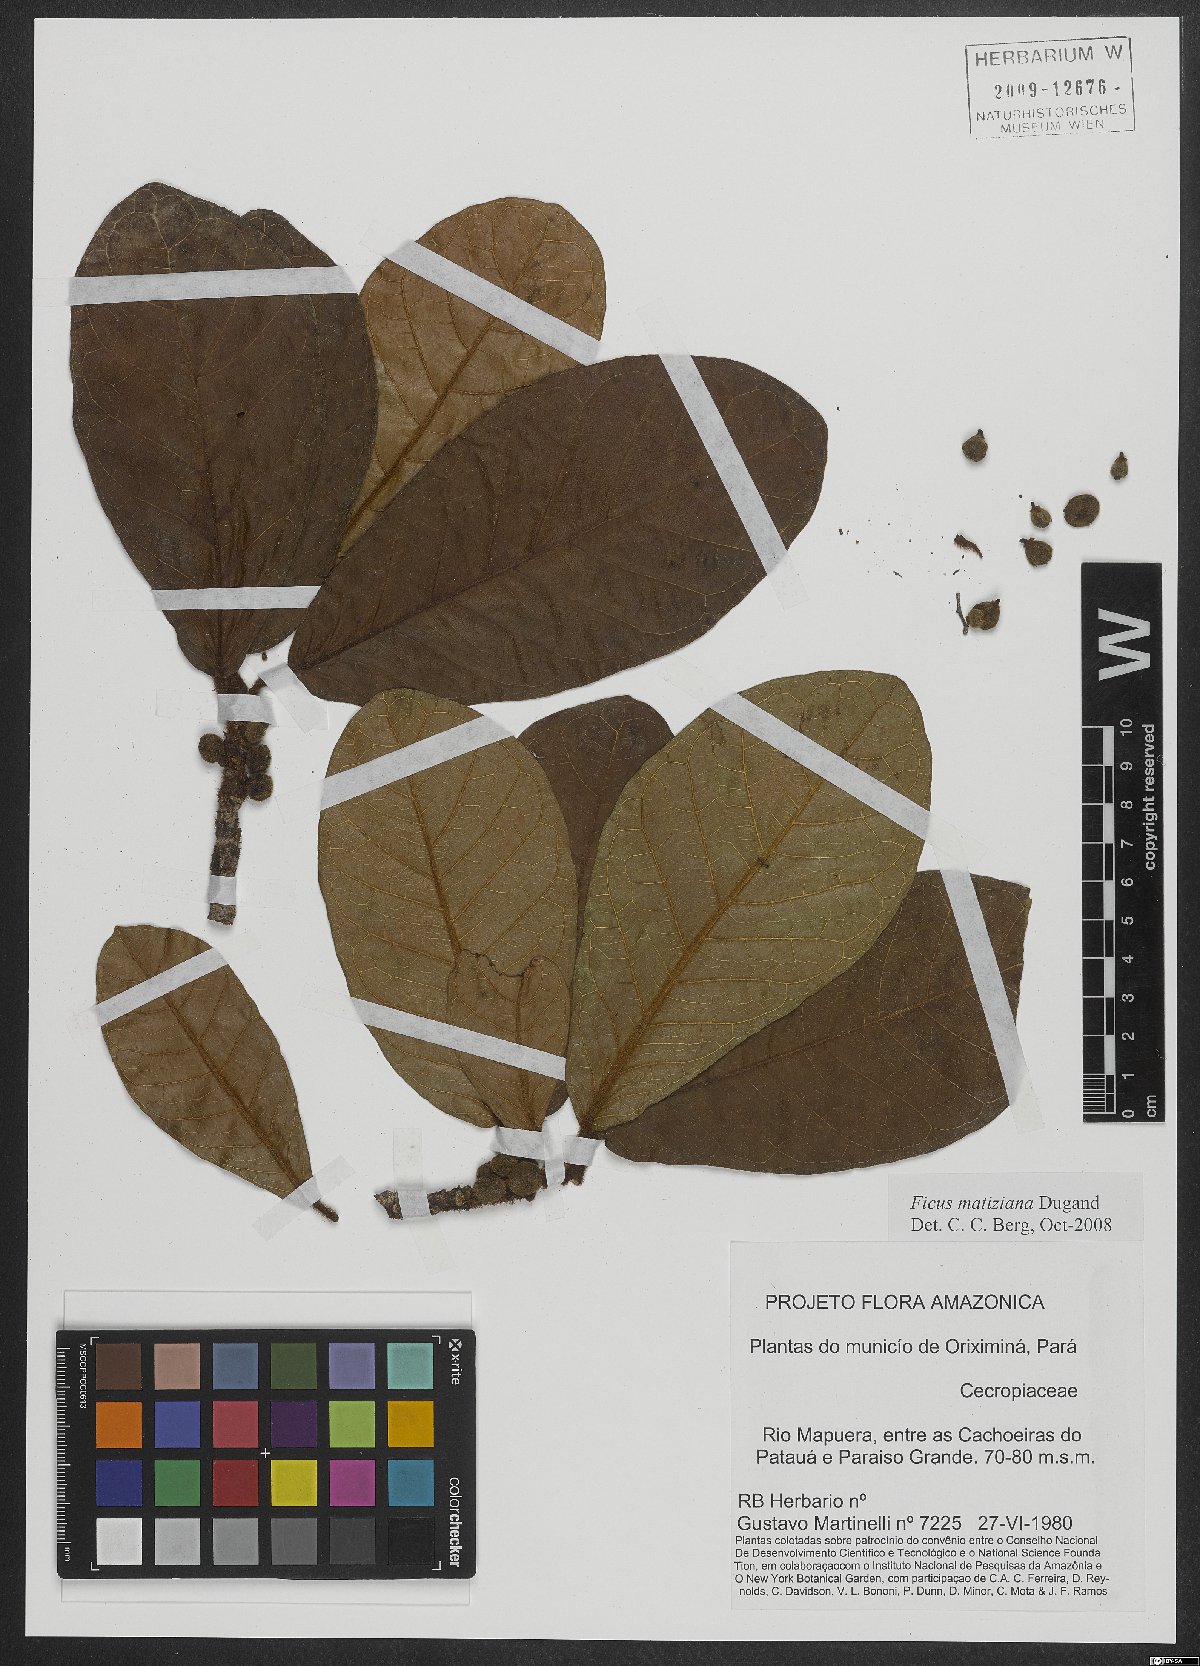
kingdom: Plantae
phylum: Tracheophyta
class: Magnoliopsida
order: Rosales
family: Moraceae
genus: Ficus
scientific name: Ficus matiziana
